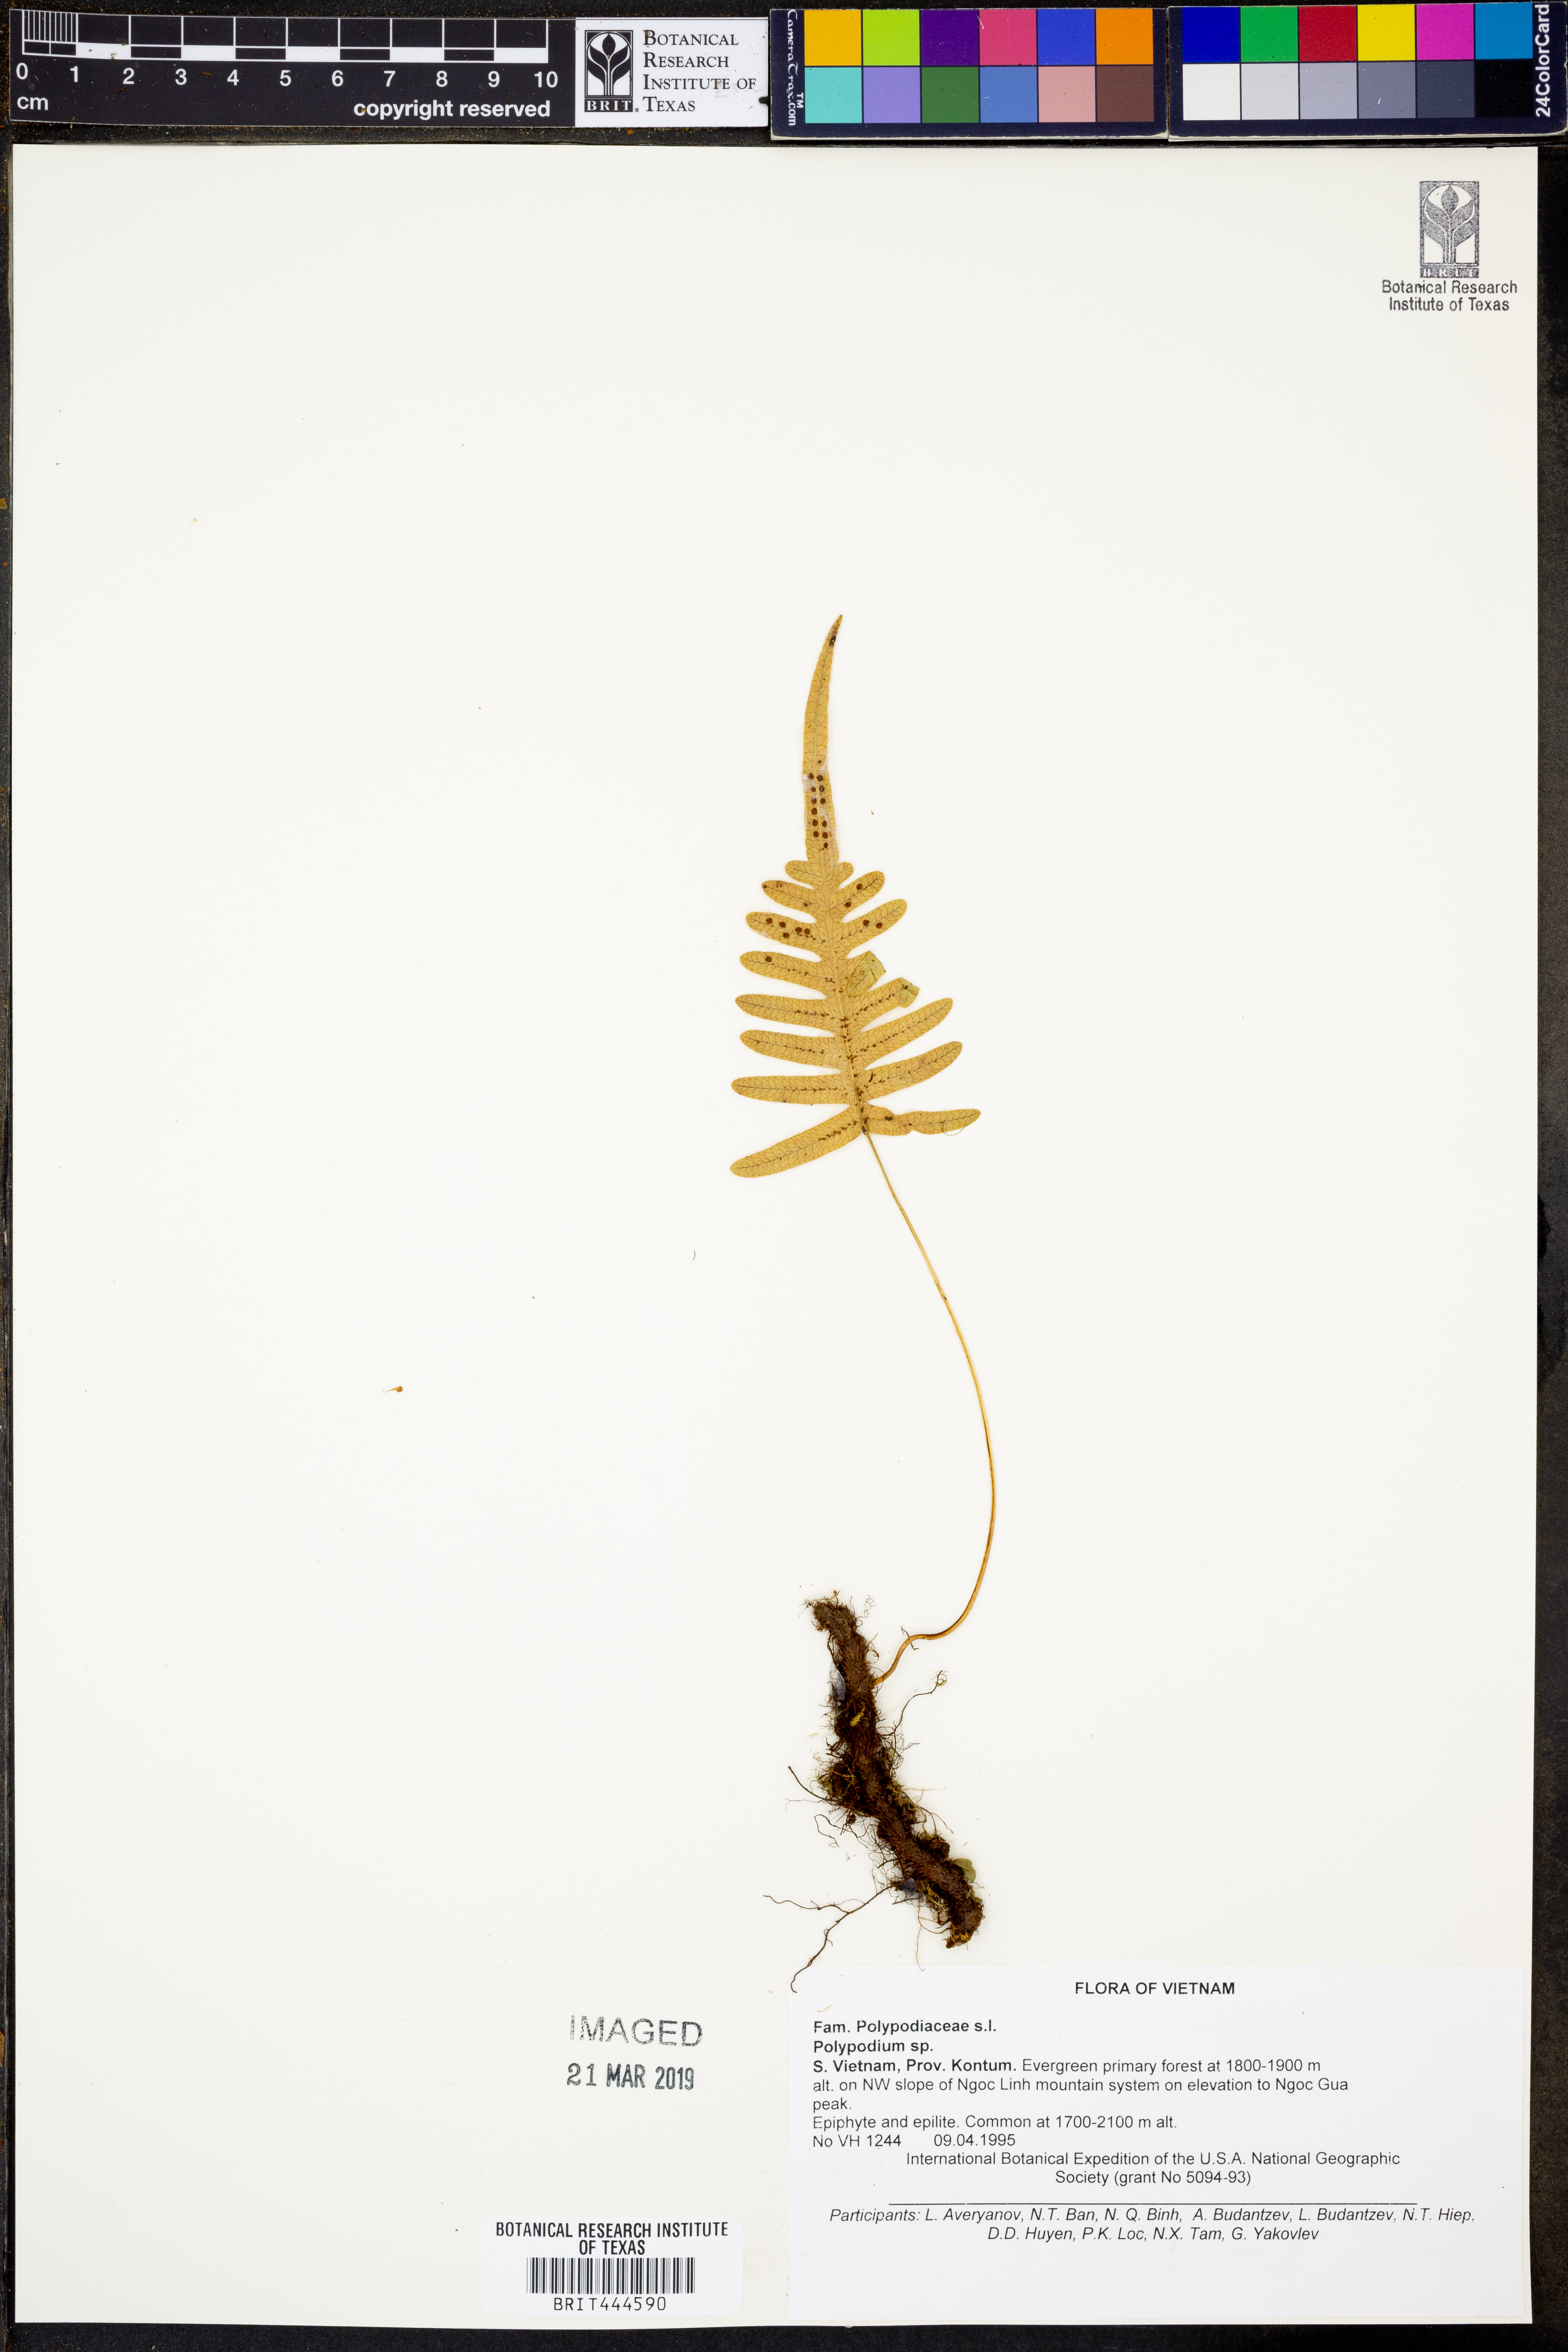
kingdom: Plantae
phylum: Tracheophyta
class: Polypodiopsida
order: Polypodiales
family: Polypodiaceae
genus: Polypodium
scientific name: Polypodium
